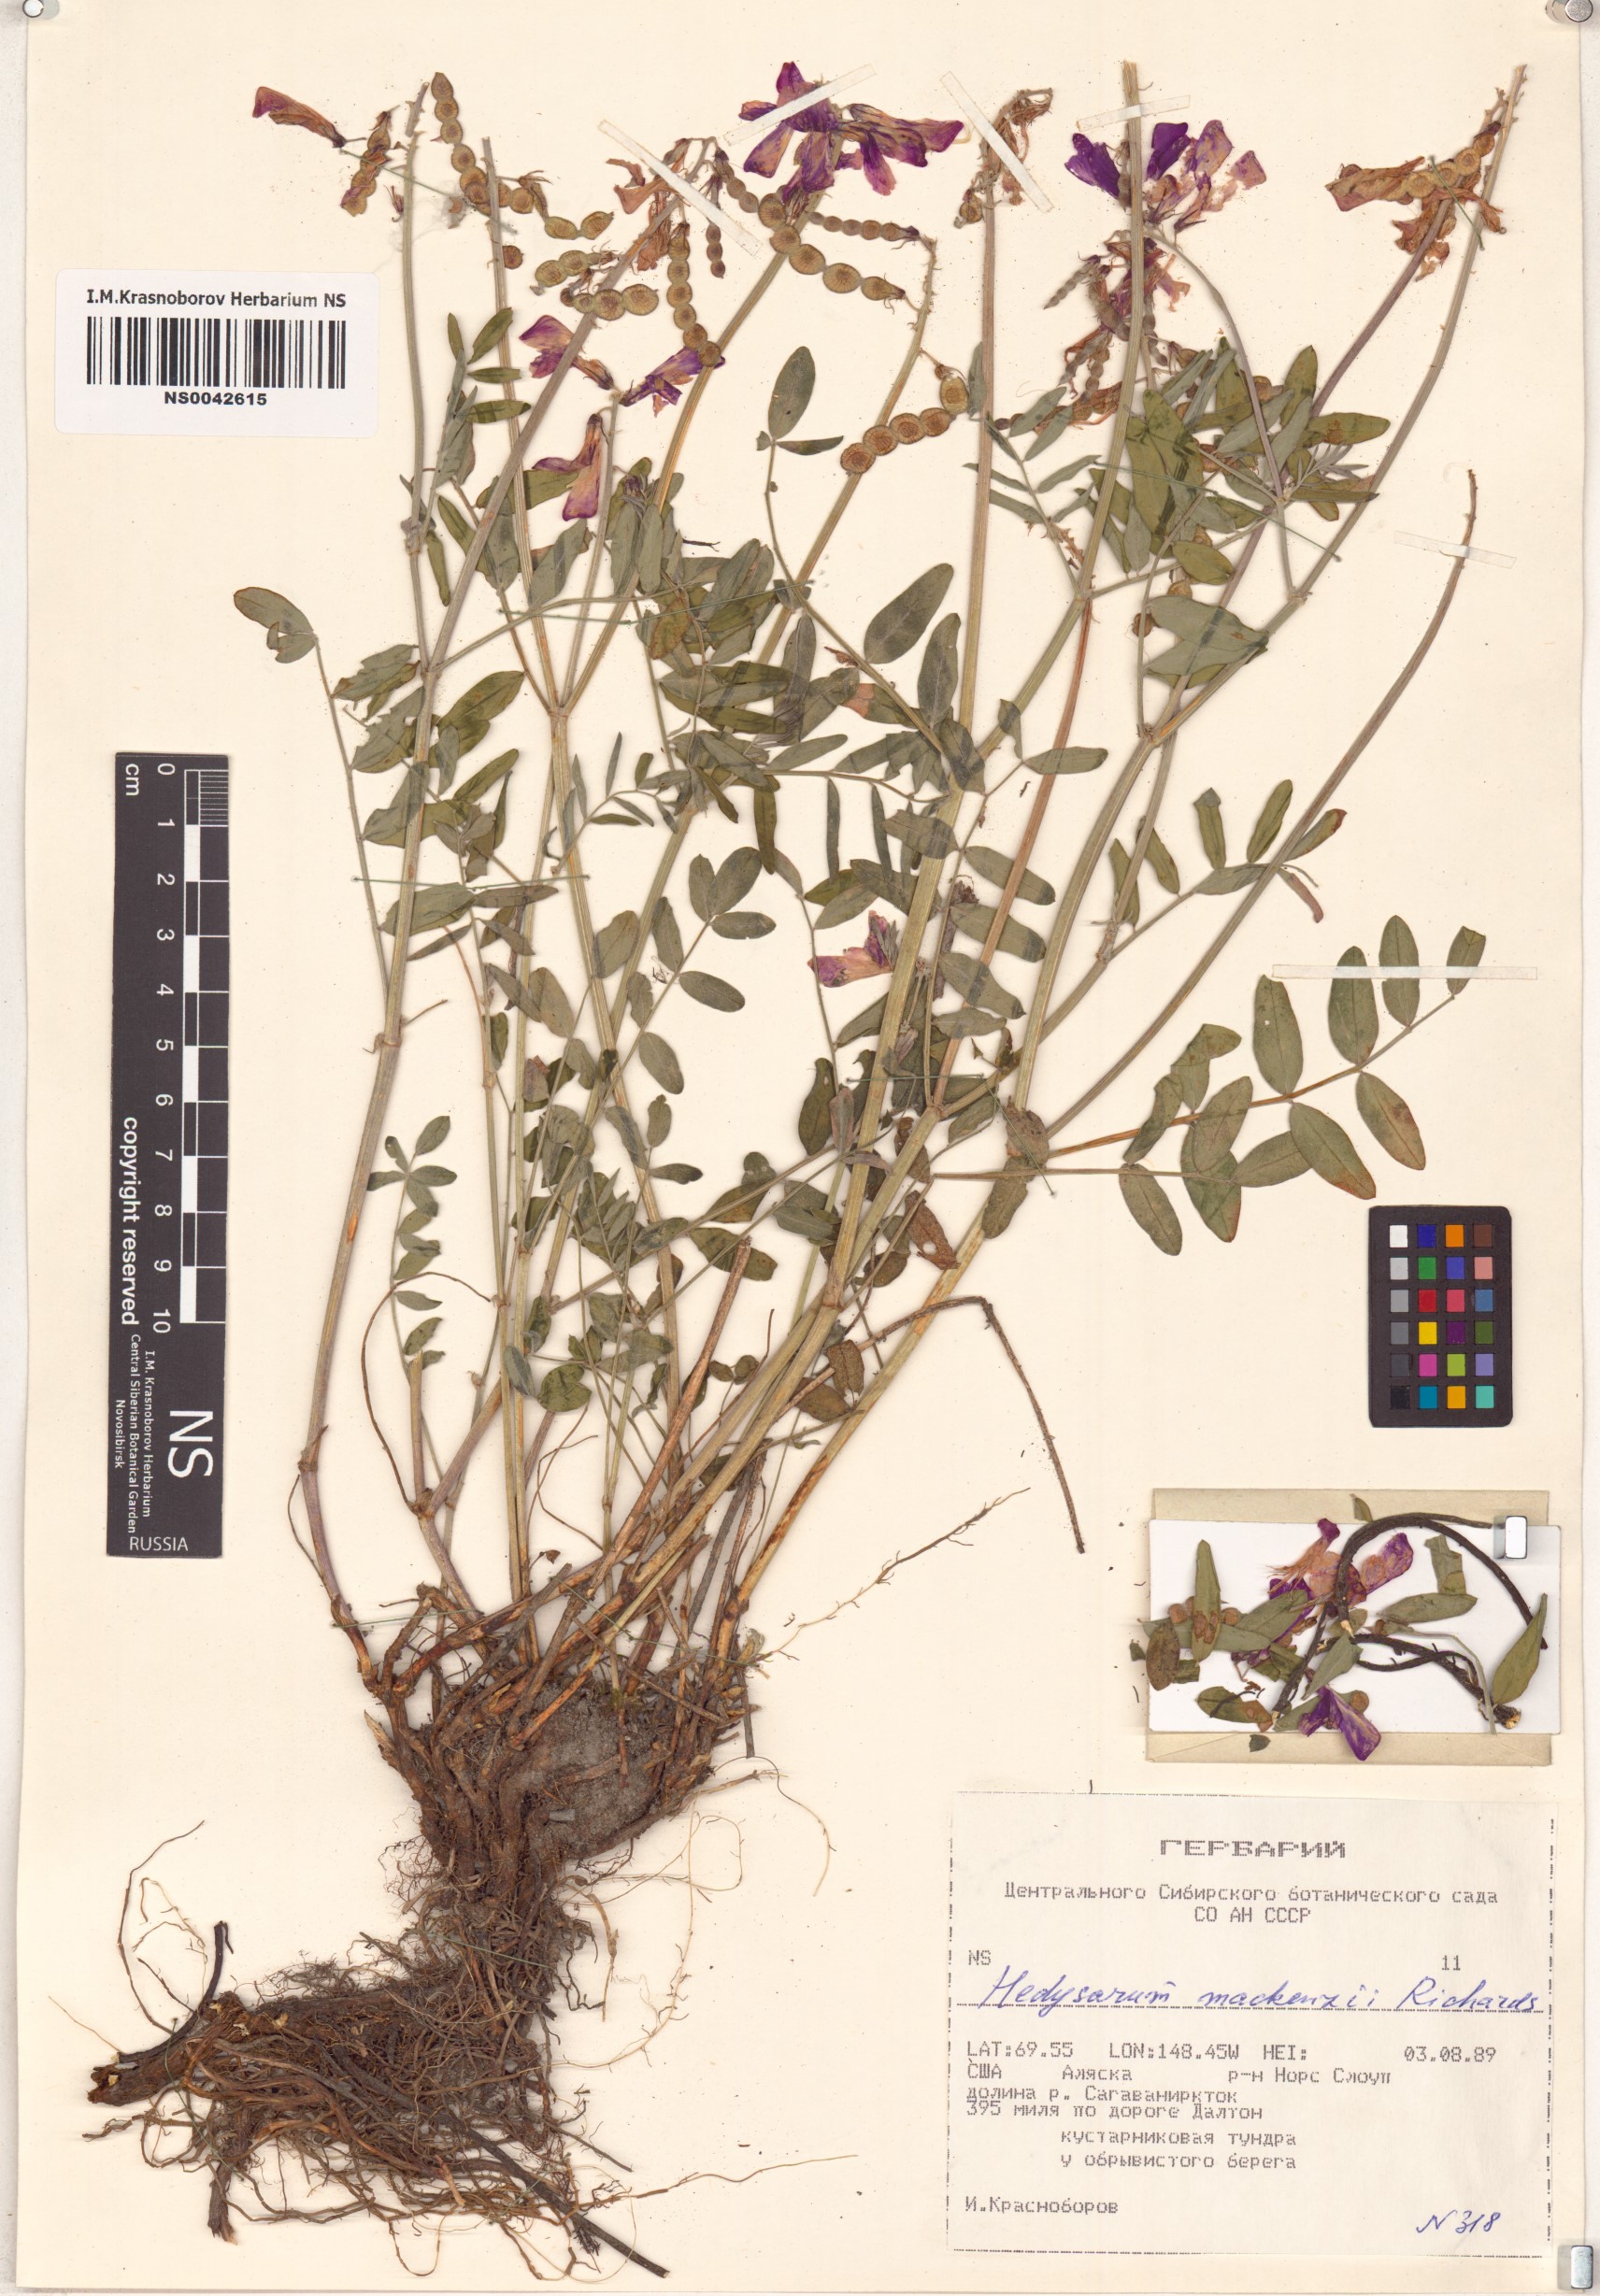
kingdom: Plantae
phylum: Tracheophyta
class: Magnoliopsida
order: Fabales
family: Fabaceae
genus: Hedysarum
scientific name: Hedysarum boreale
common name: Northern sweet-vetch
